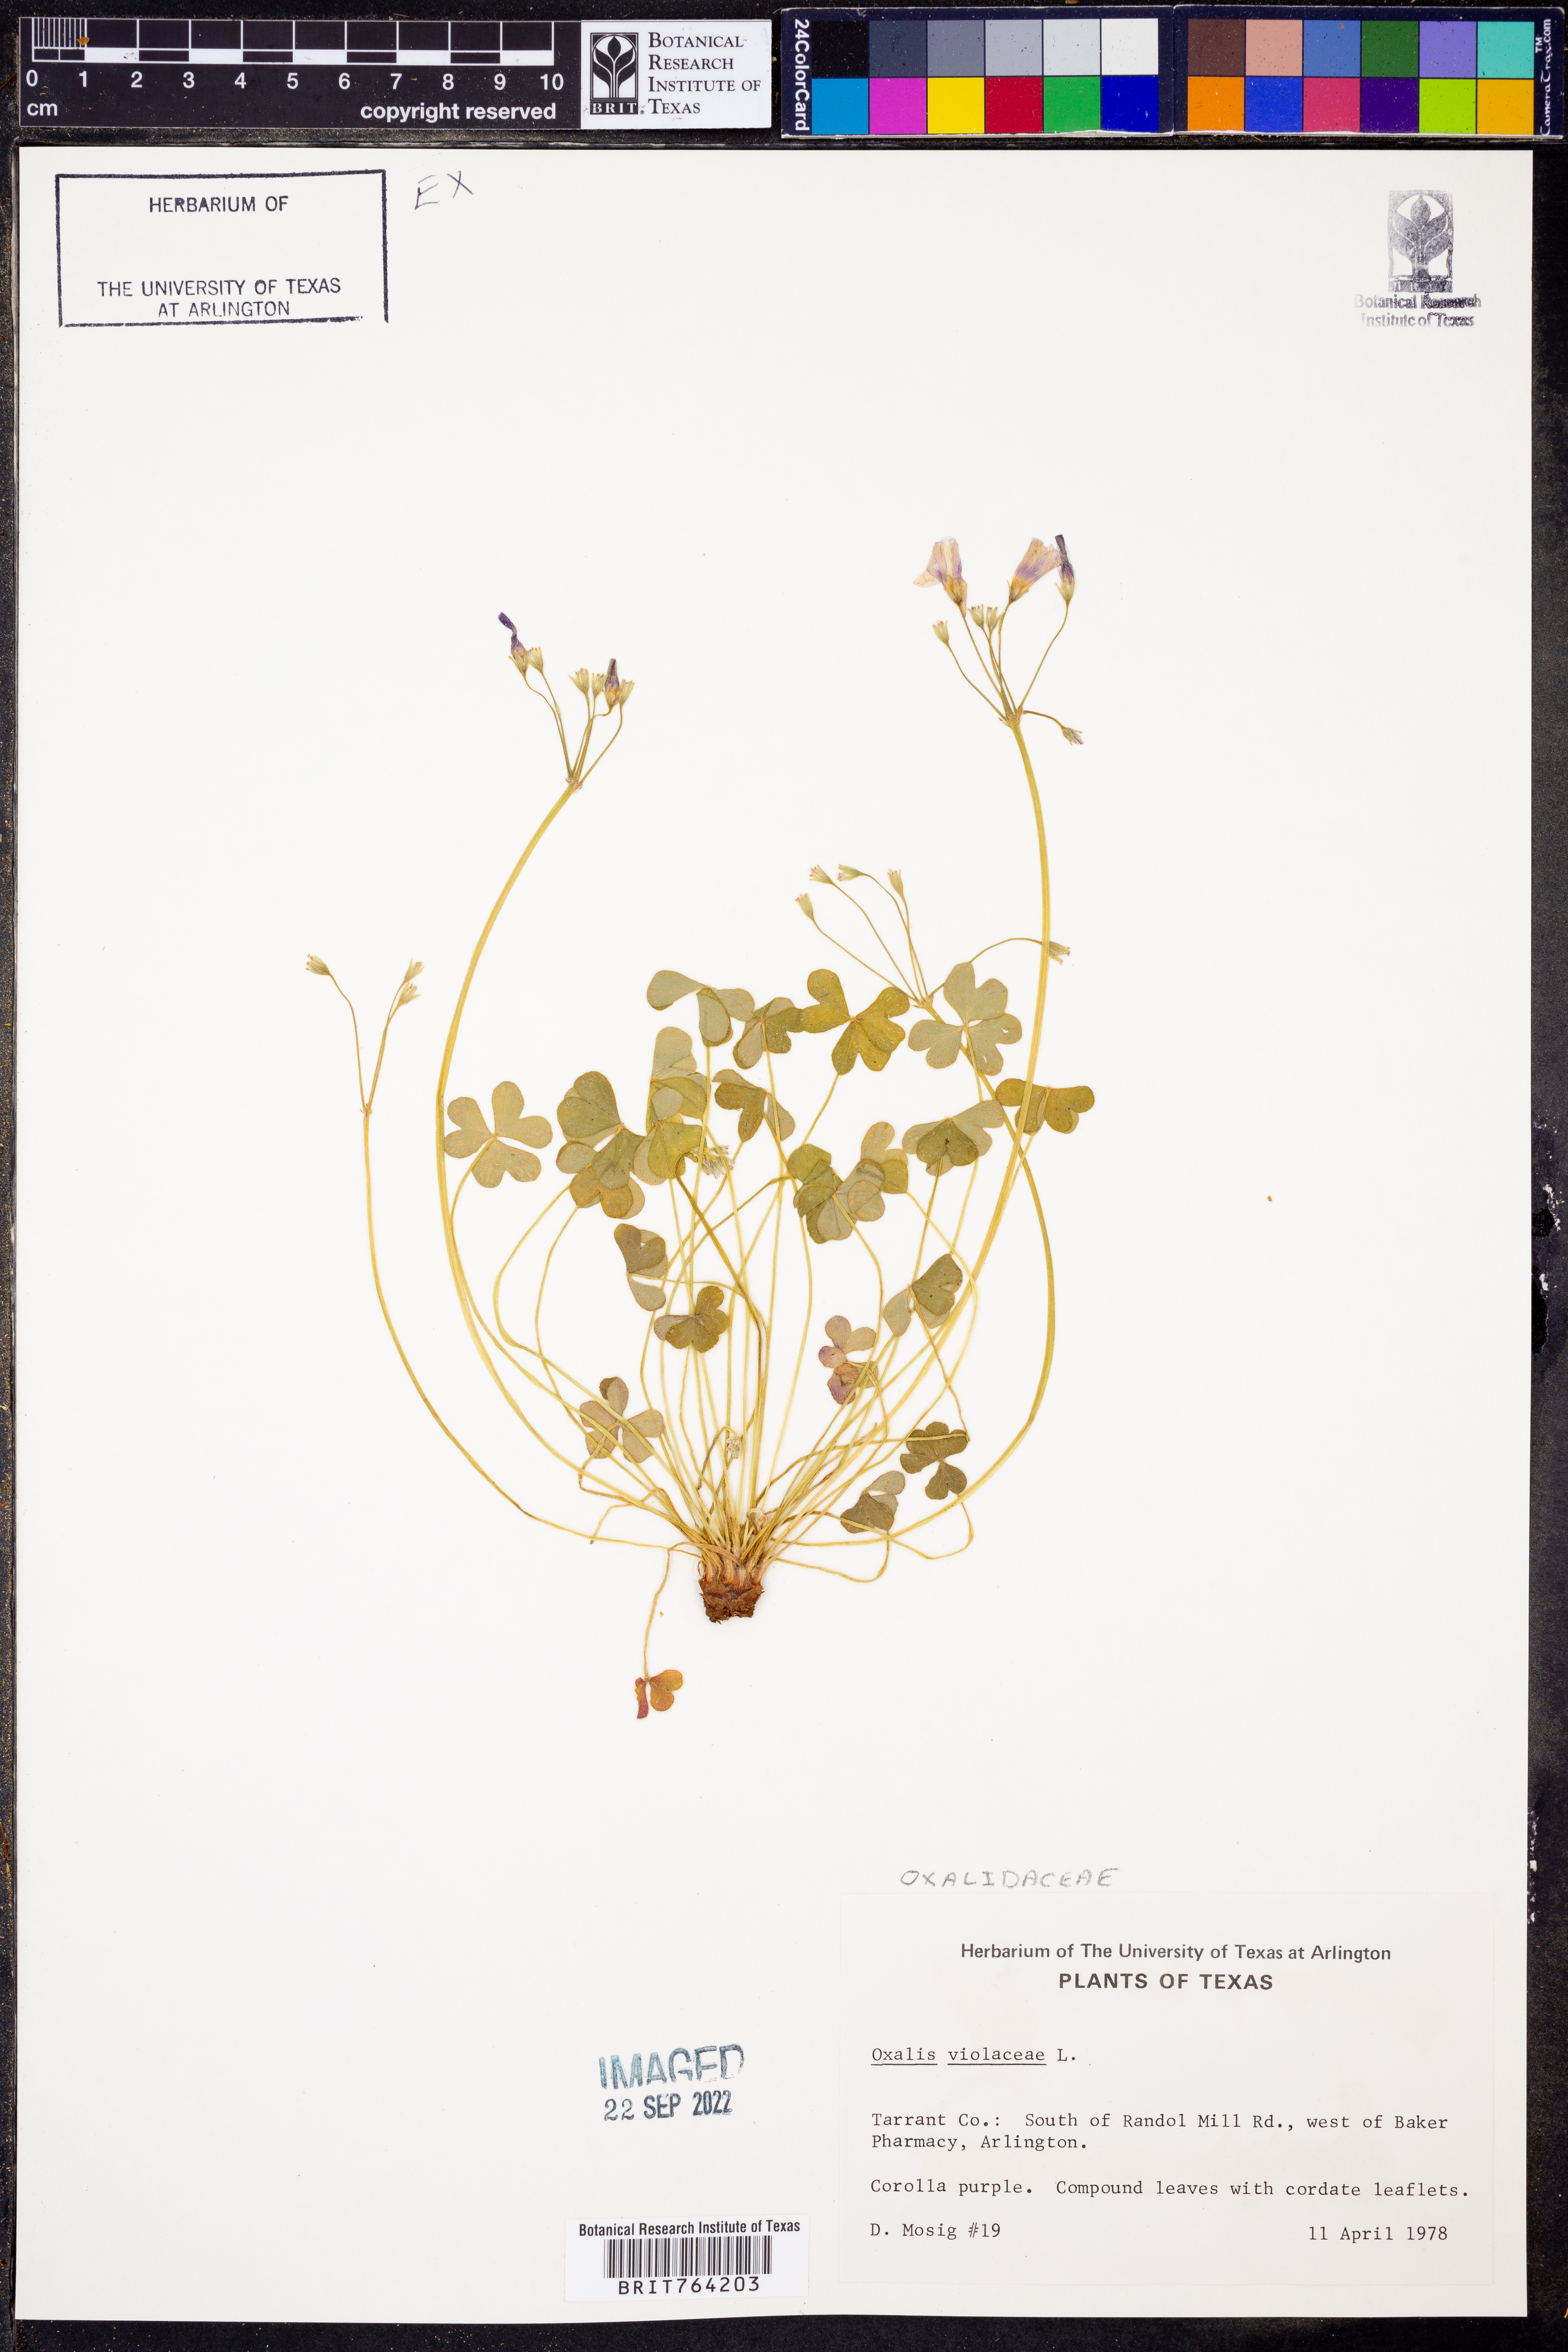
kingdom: Plantae
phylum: Tracheophyta
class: Magnoliopsida
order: Oxalidales
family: Oxalidaceae
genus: Oxalis
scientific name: Oxalis violacea
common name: Violet wood-sorrel
